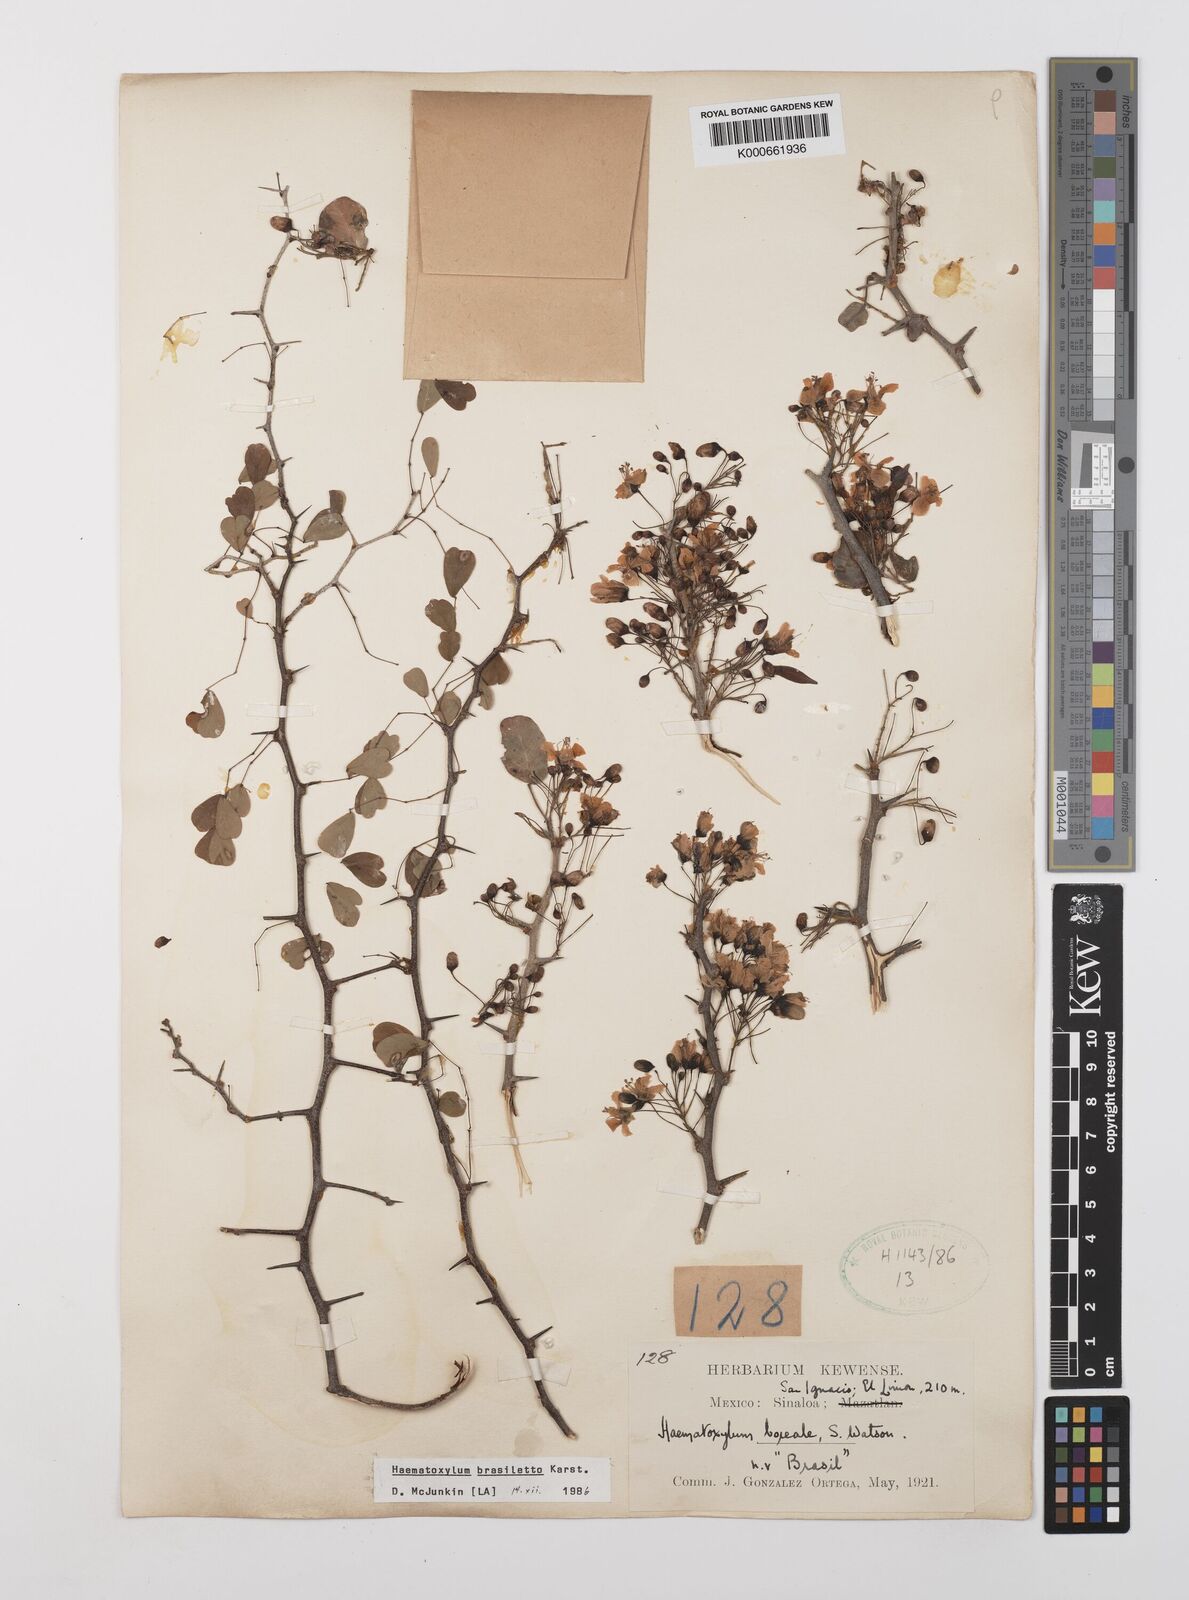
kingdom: Plantae
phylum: Tracheophyta
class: Magnoliopsida
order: Fabales
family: Fabaceae
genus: Haematoxylum
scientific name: Haematoxylum brasiletto
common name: Peachwood
